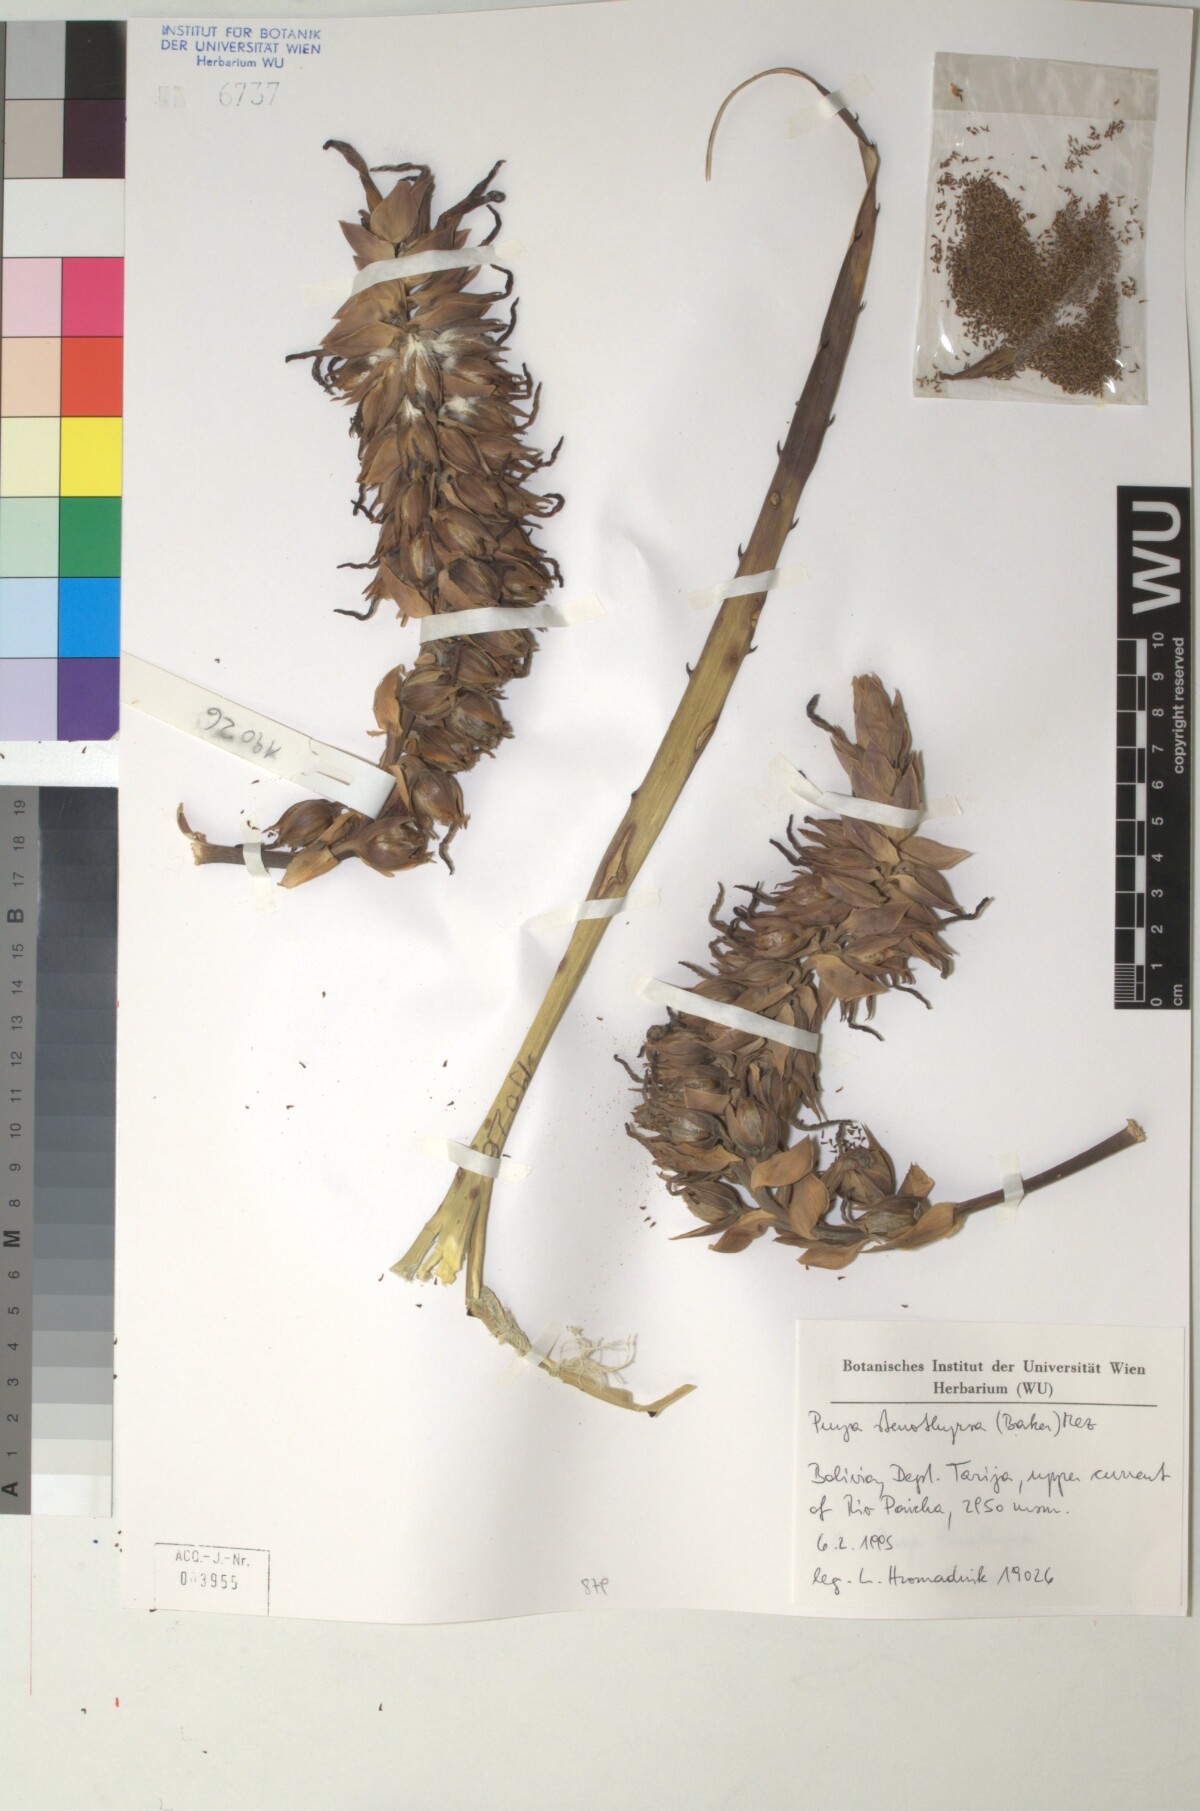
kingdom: Plantae
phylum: Tracheophyta
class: Liliopsida
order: Poales
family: Bromeliaceae
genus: Puya
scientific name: Puya stenothyrsa
